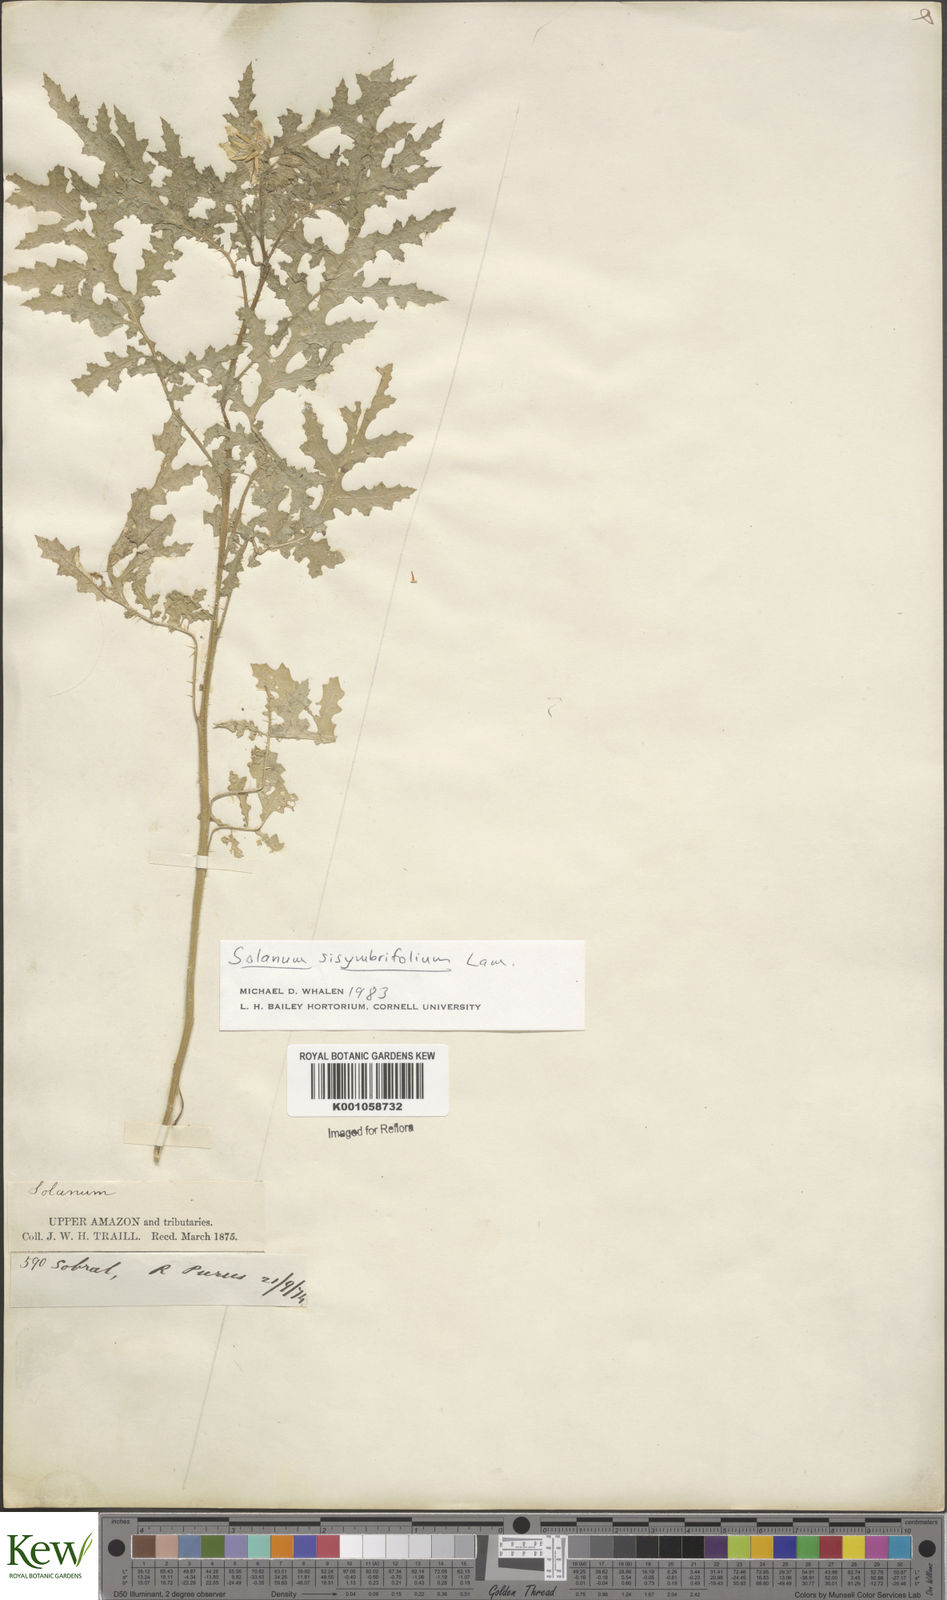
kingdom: Plantae
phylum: Tracheophyta
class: Magnoliopsida
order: Solanales
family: Solanaceae
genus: Solanum
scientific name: Solanum sisymbriifolium
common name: Red buffalo-bur
